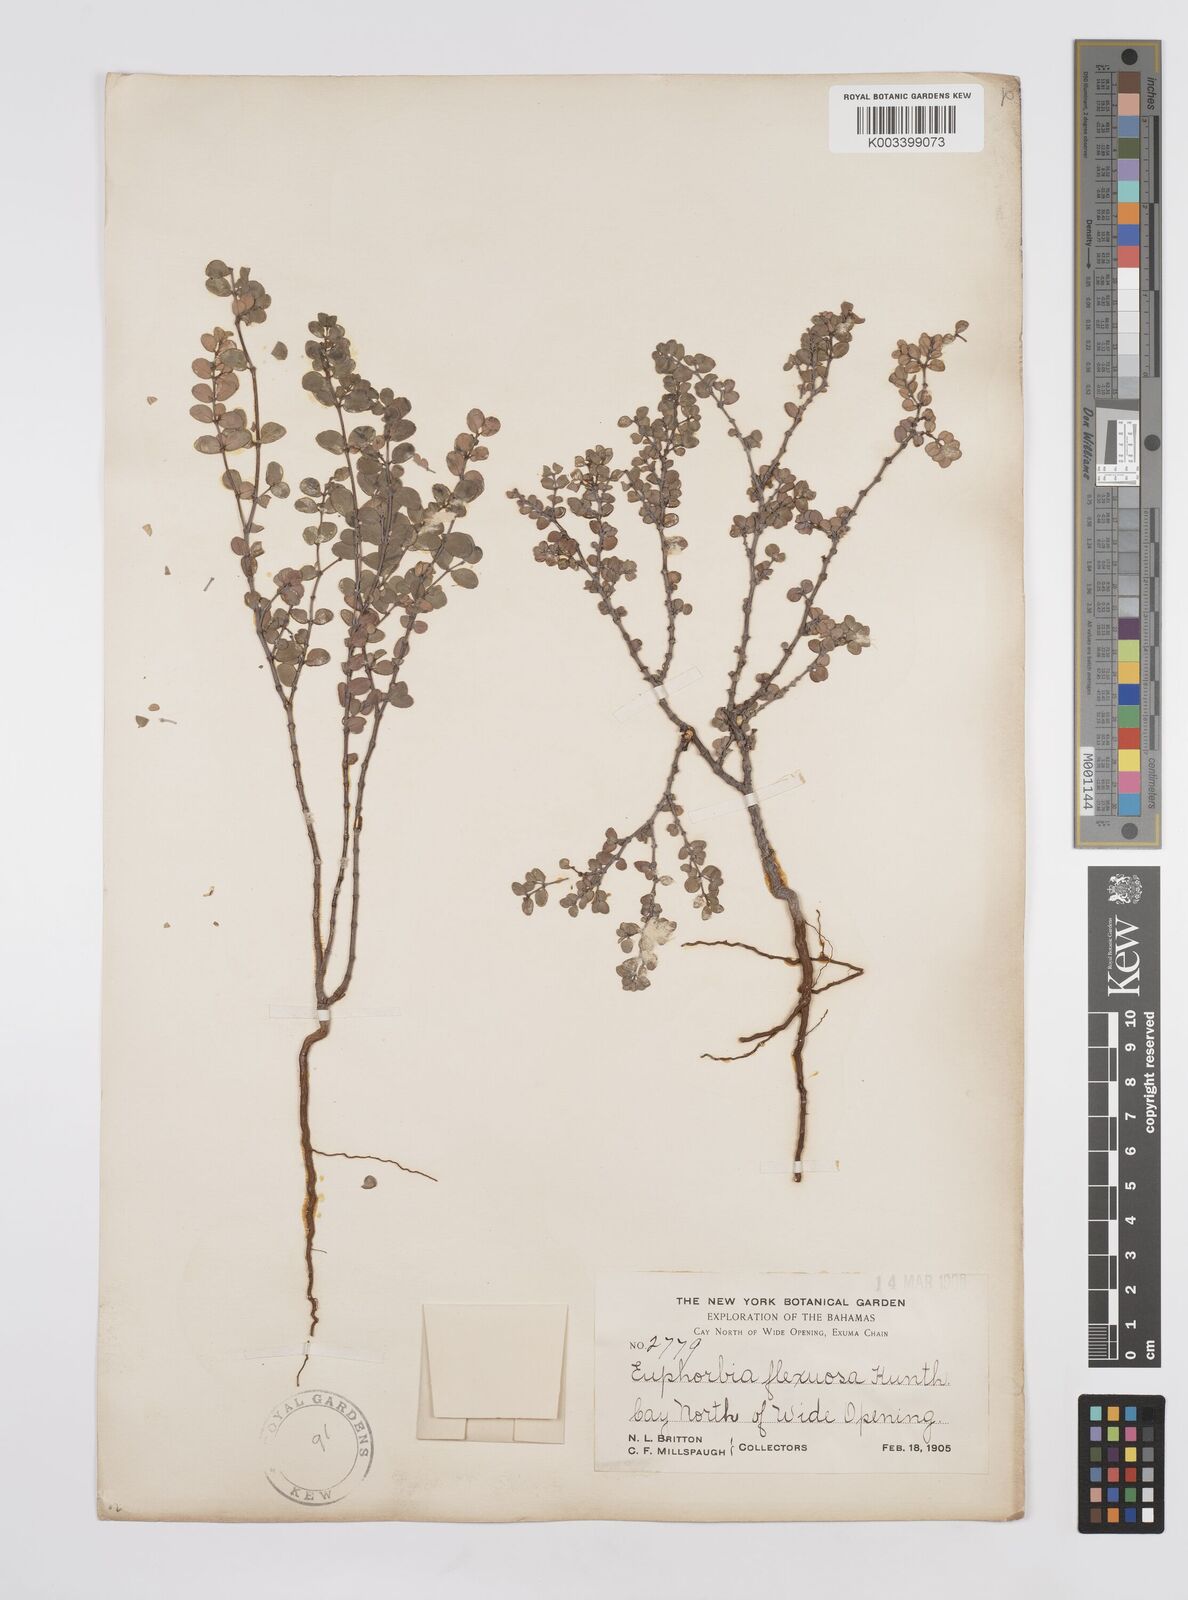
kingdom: Plantae
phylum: Tracheophyta
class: Magnoliopsida
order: Malpighiales
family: Euphorbiaceae
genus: Euphorbia
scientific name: Euphorbia cayensis
